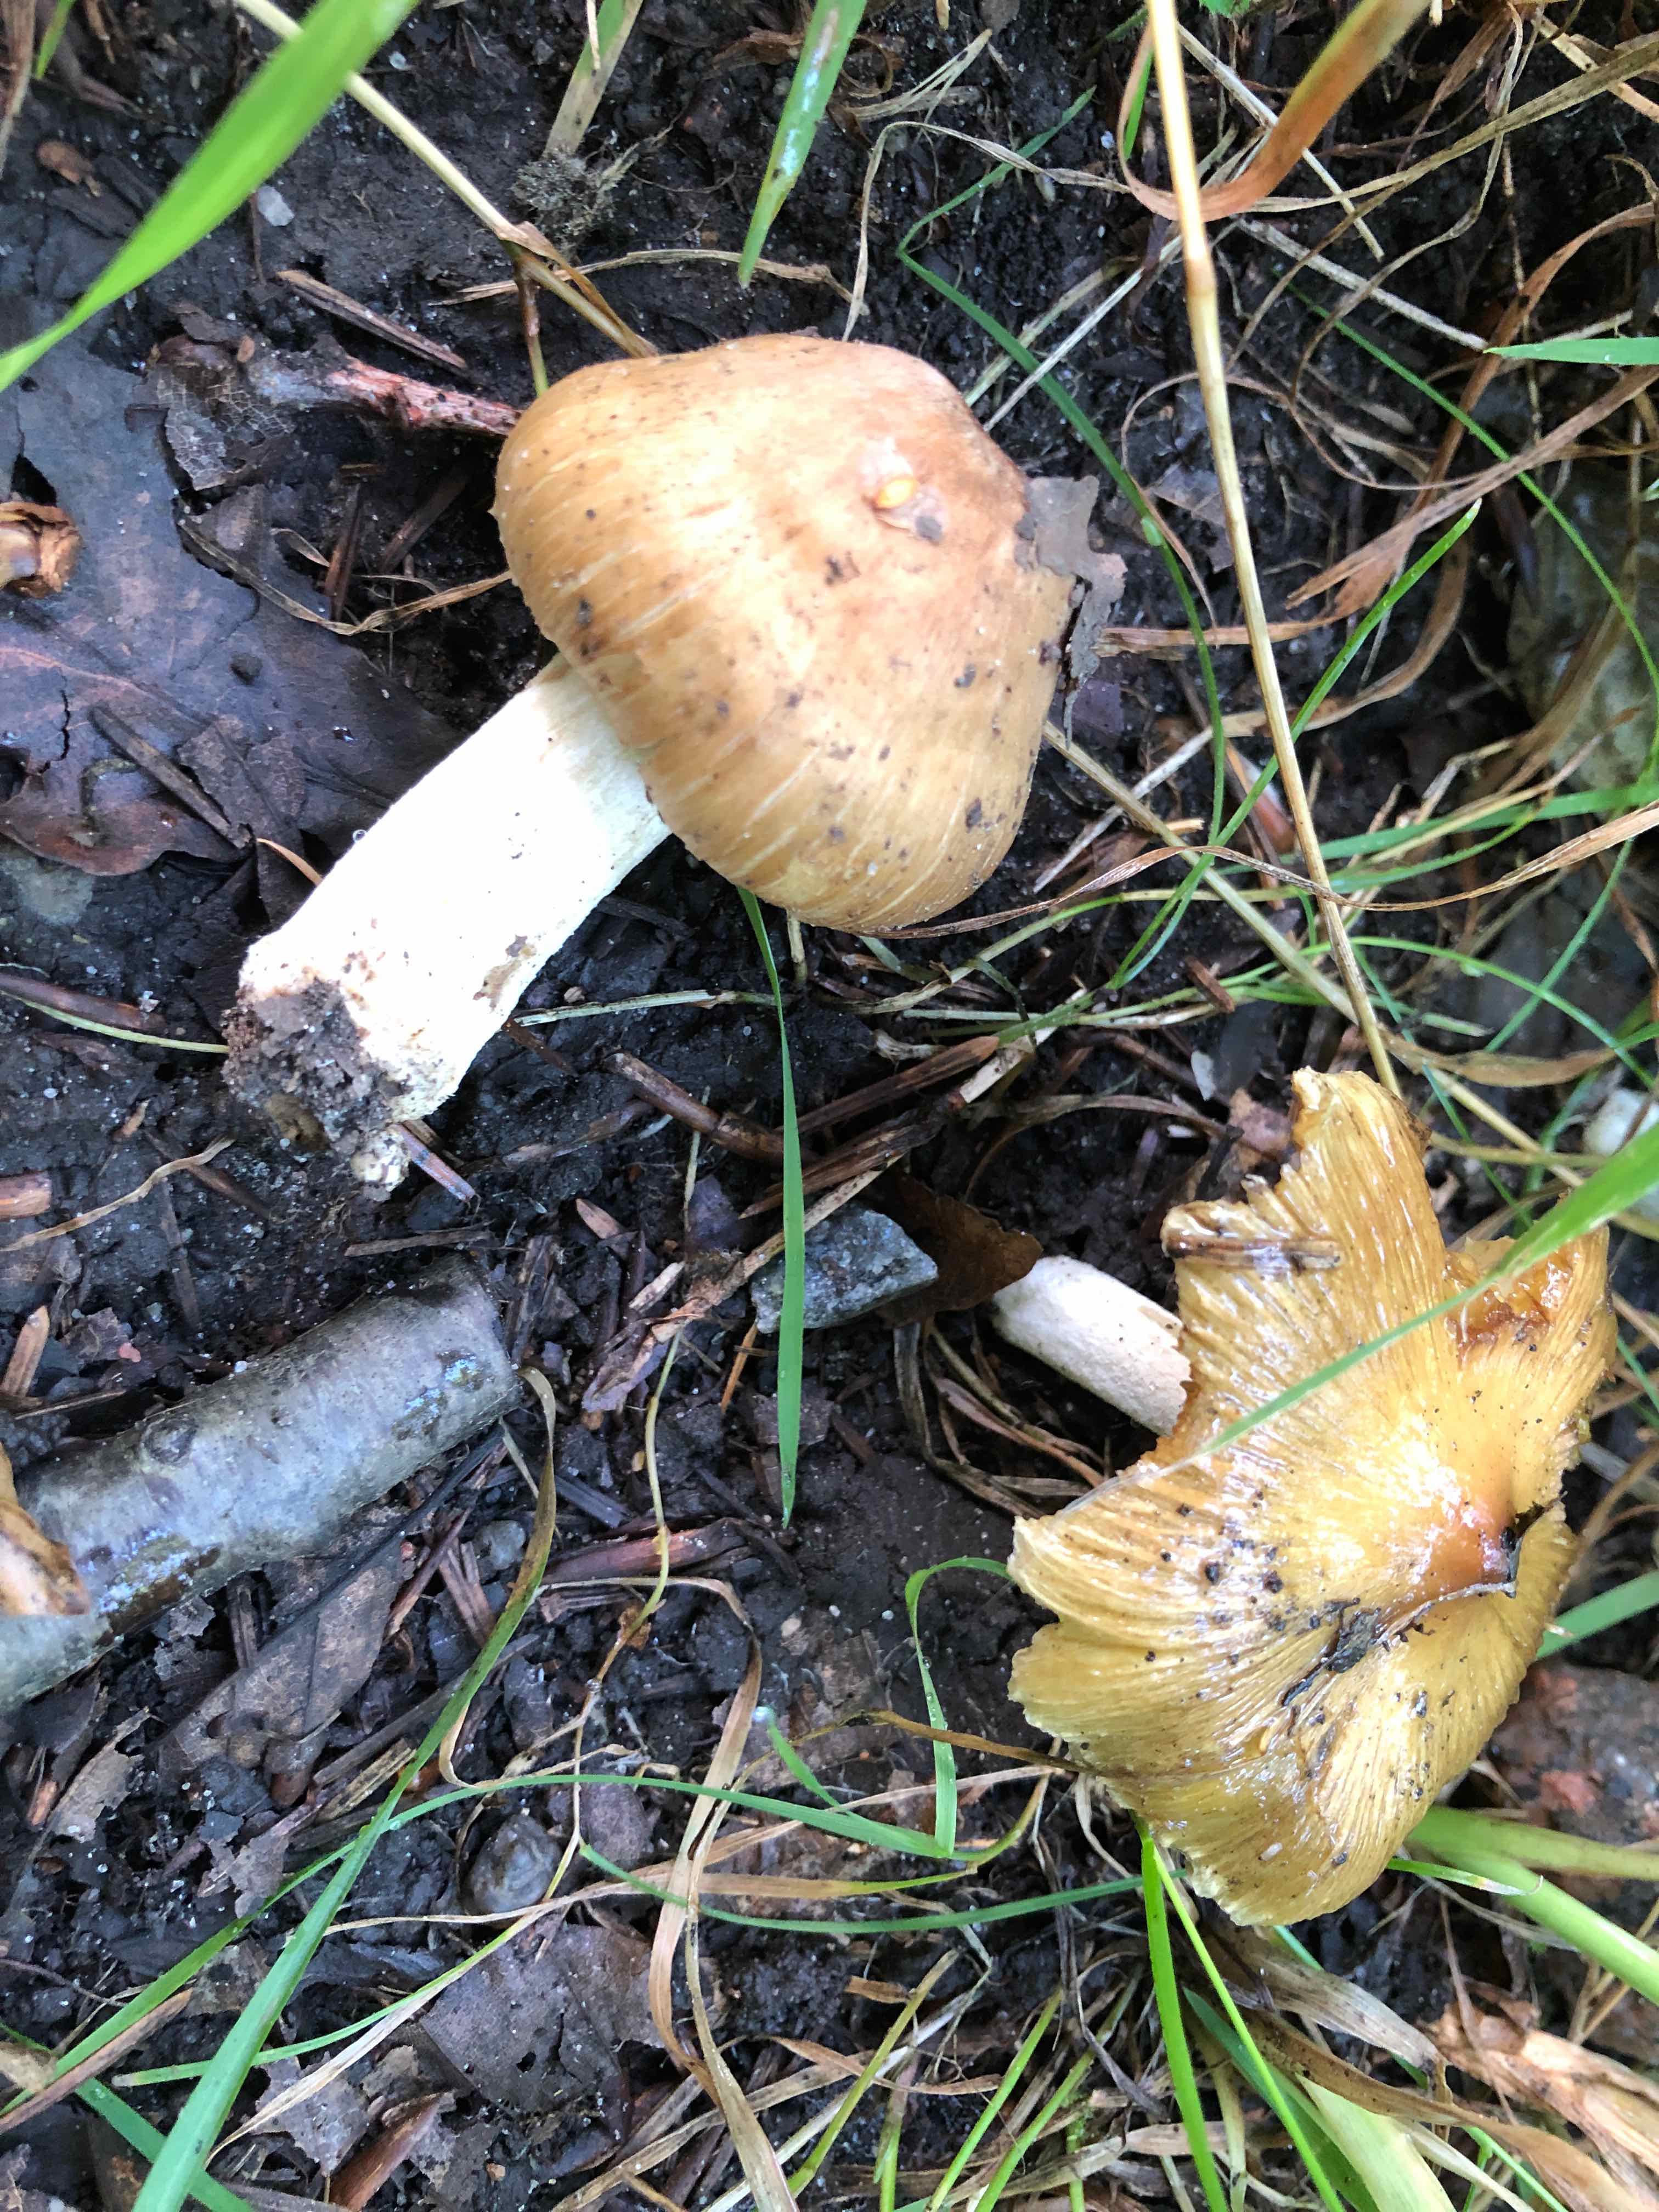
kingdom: Fungi
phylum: Basidiomycota
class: Agaricomycetes
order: Agaricales
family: Inocybaceae
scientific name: Inocybaceae
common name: trævlhatfamilien
